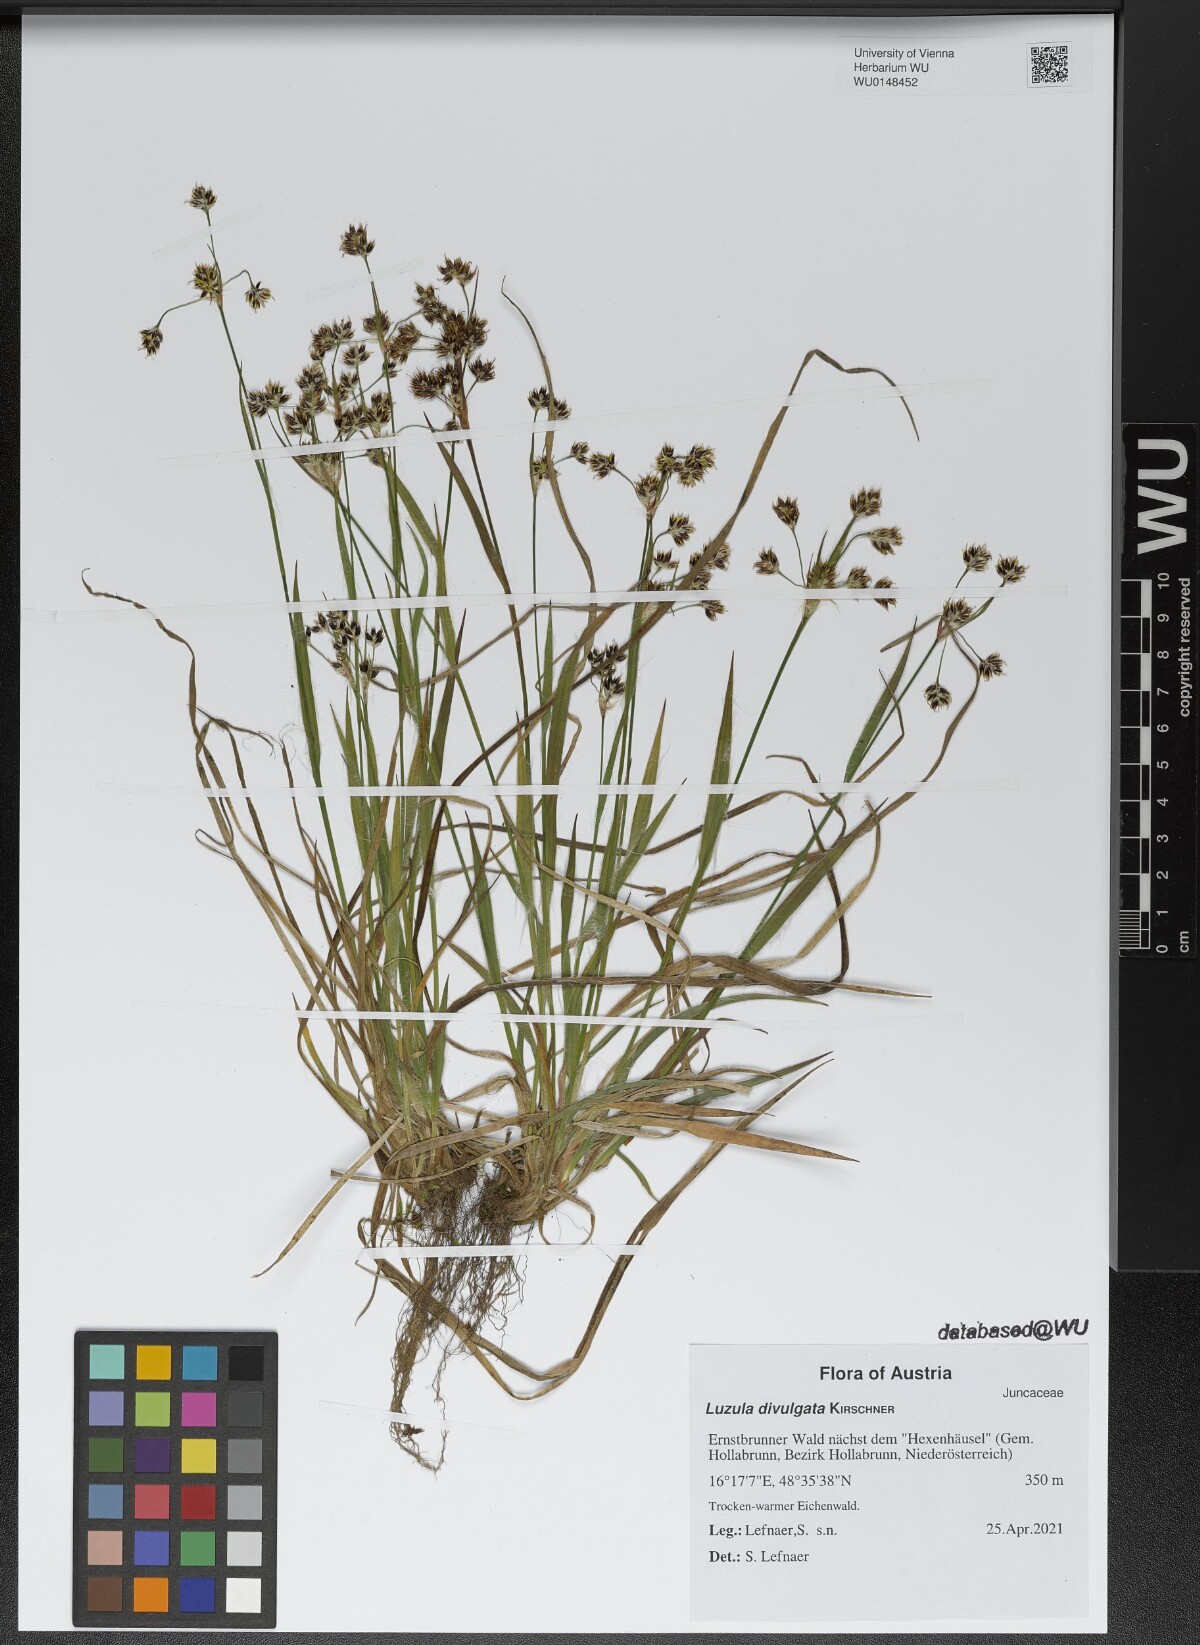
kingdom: Plantae
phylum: Tracheophyta
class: Liliopsida
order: Poales
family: Juncaceae
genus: Luzula
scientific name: Luzula divulgata
